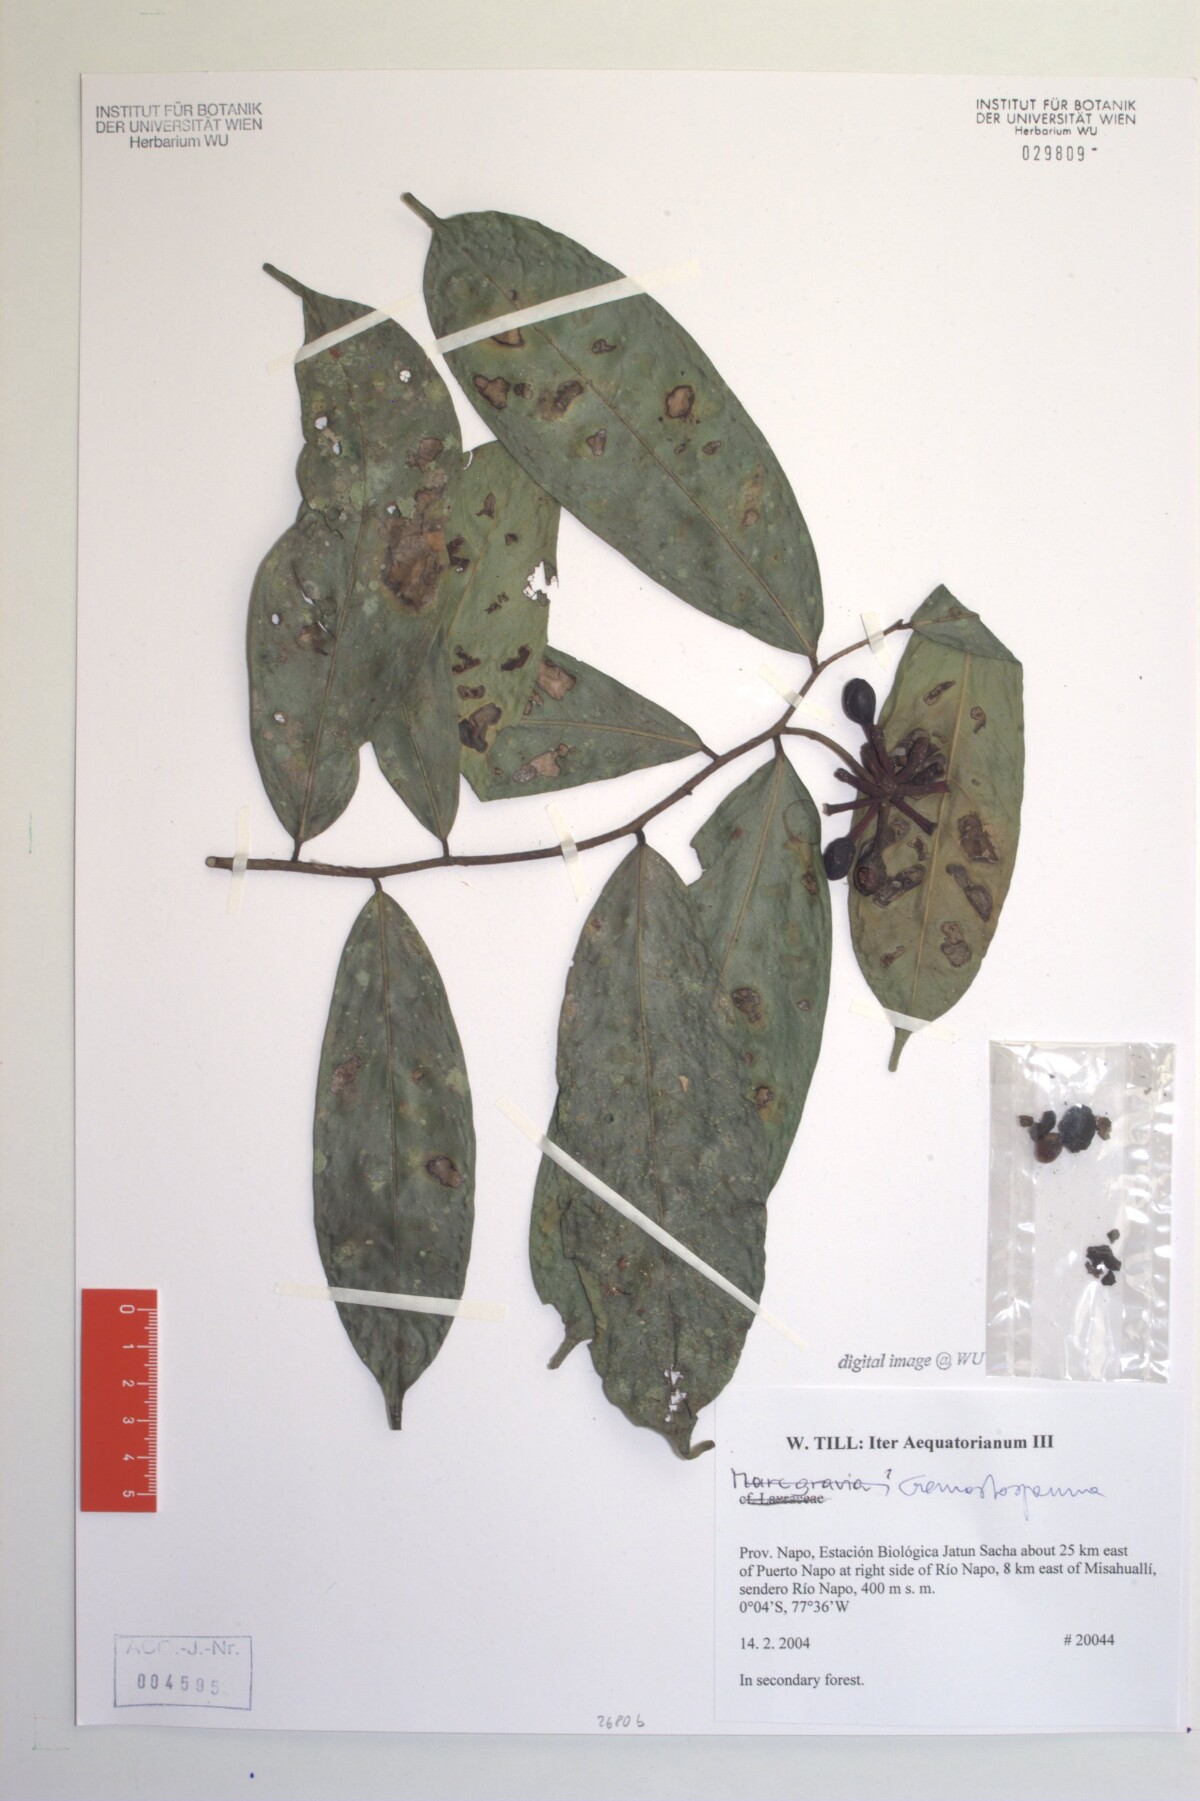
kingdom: Plantae
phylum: Tracheophyta
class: Magnoliopsida
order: Magnoliales
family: Annonaceae
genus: Cremastosperma
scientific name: Cremastosperma
